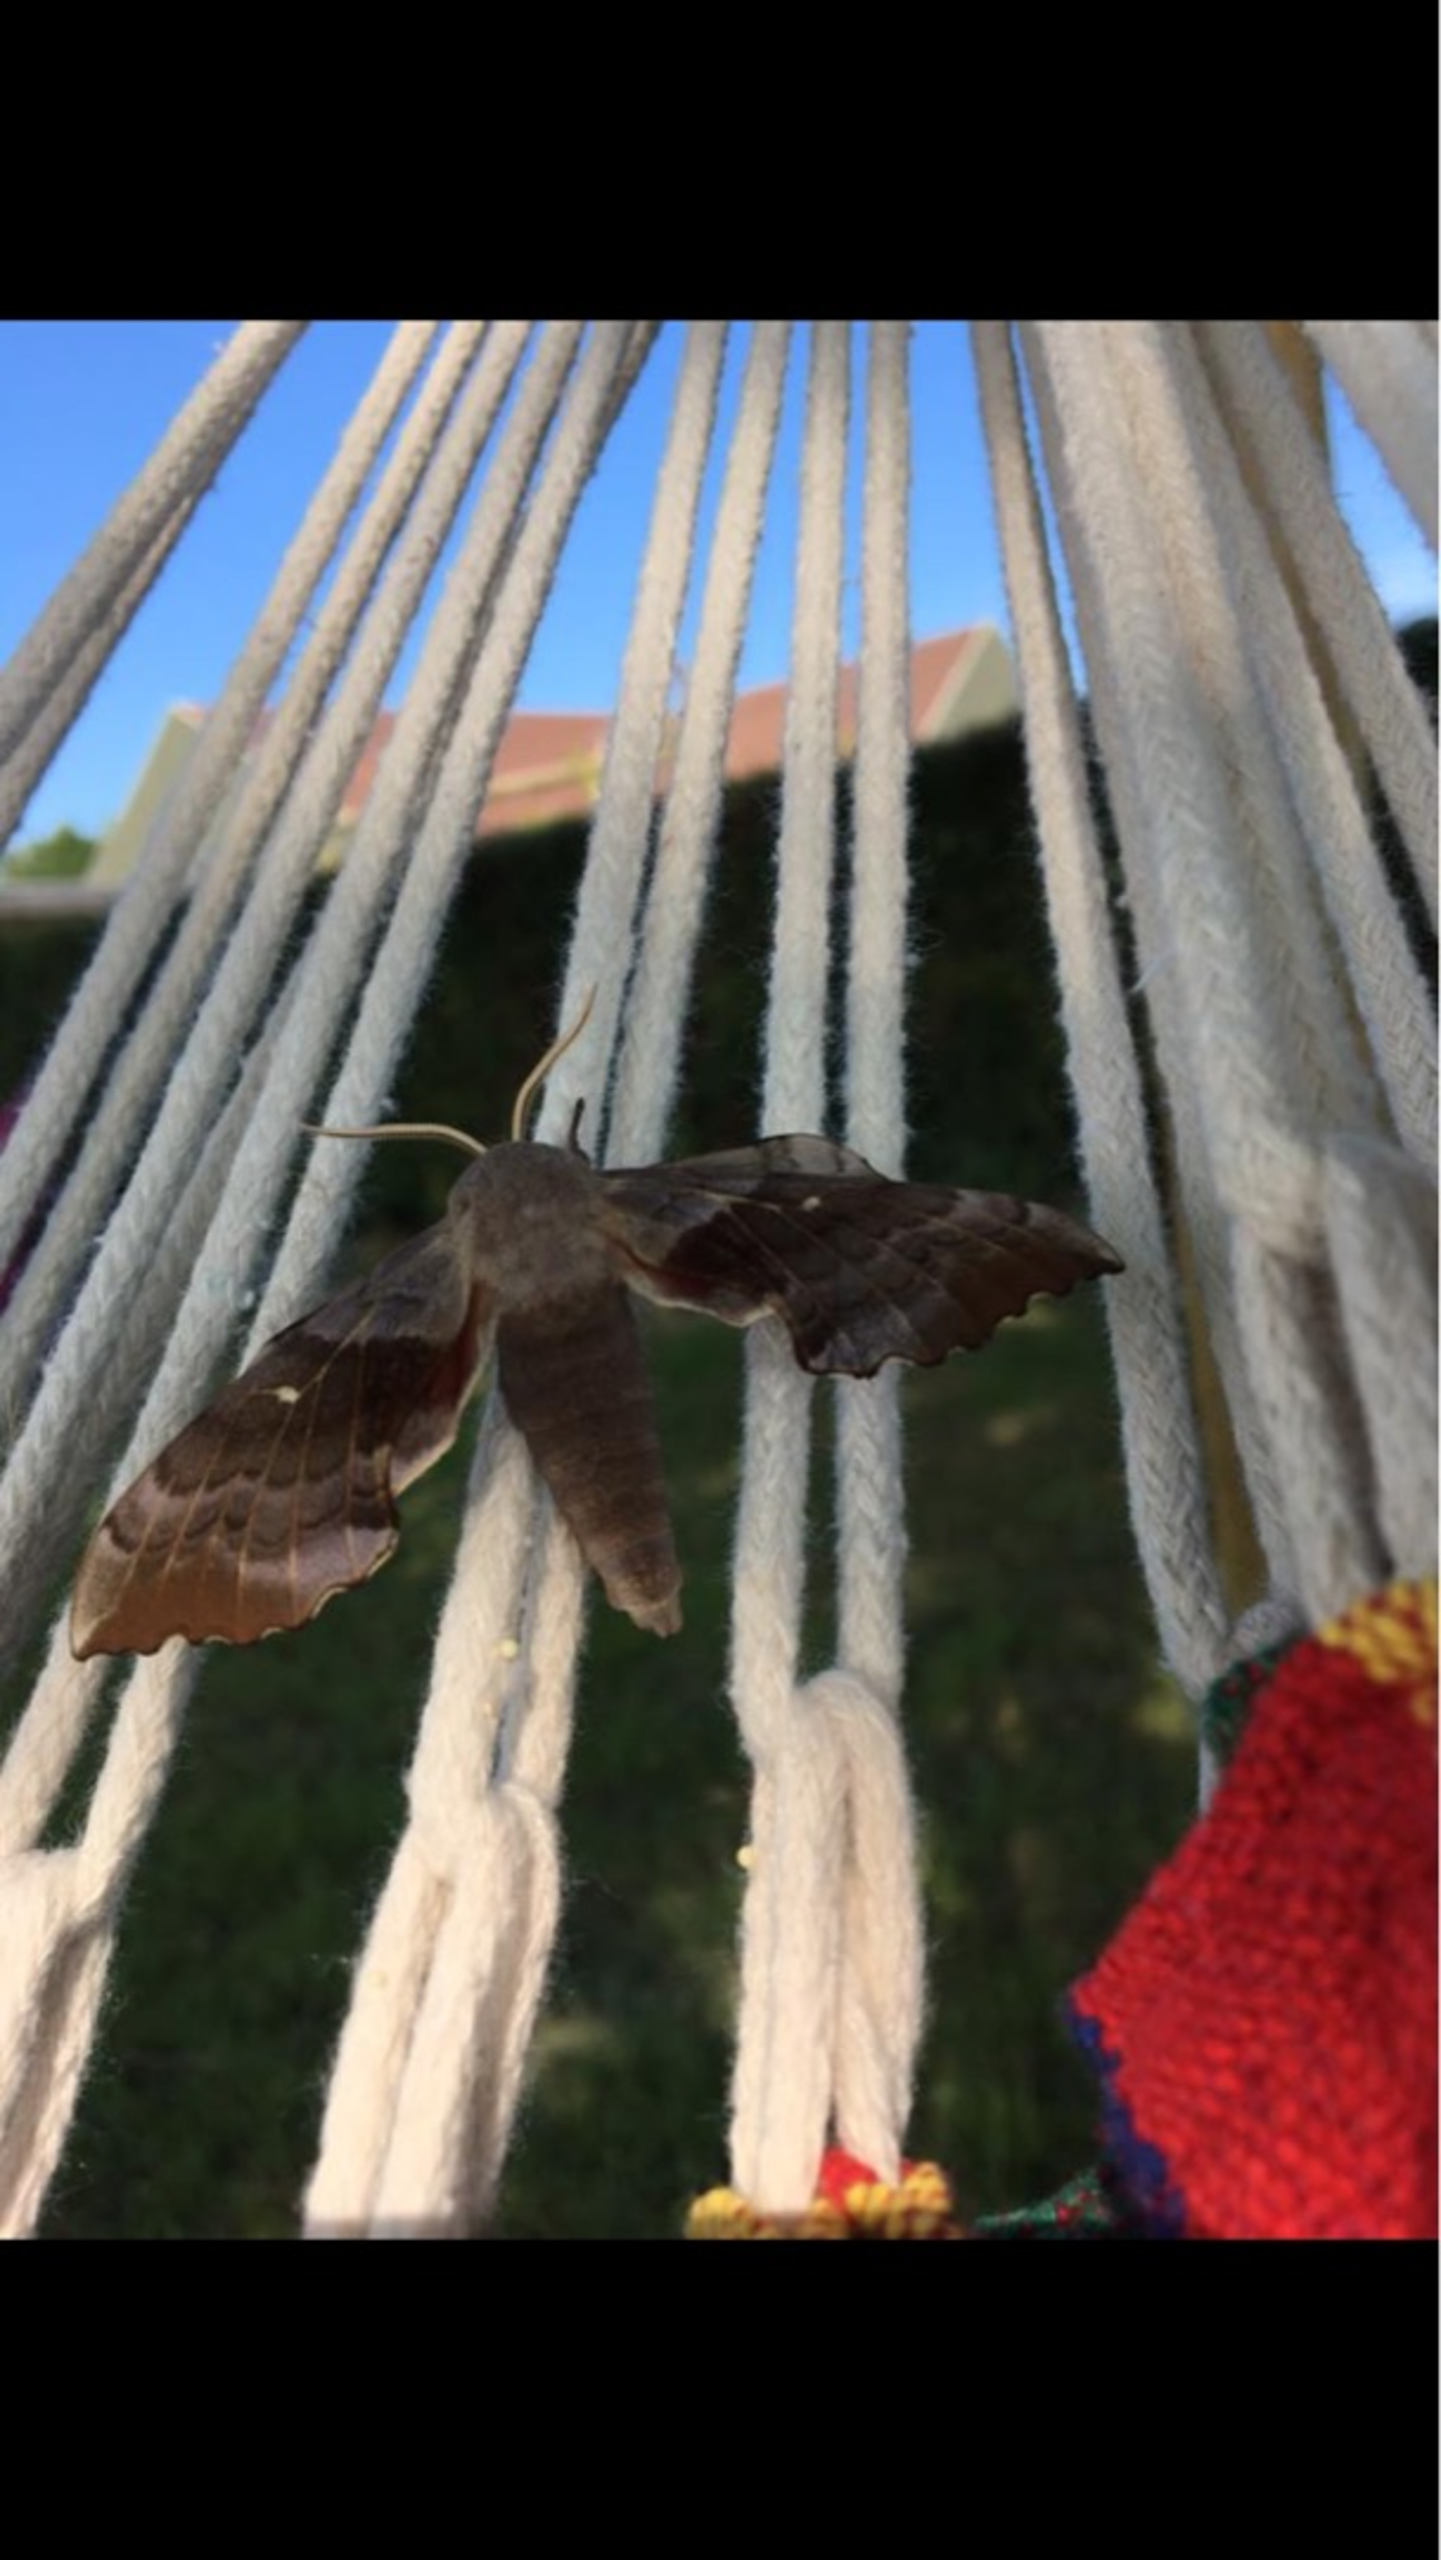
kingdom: Animalia
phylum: Arthropoda
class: Insecta
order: Lepidoptera
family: Sphingidae
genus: Laothoe
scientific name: Laothoe populi
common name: Poppelsværmer
